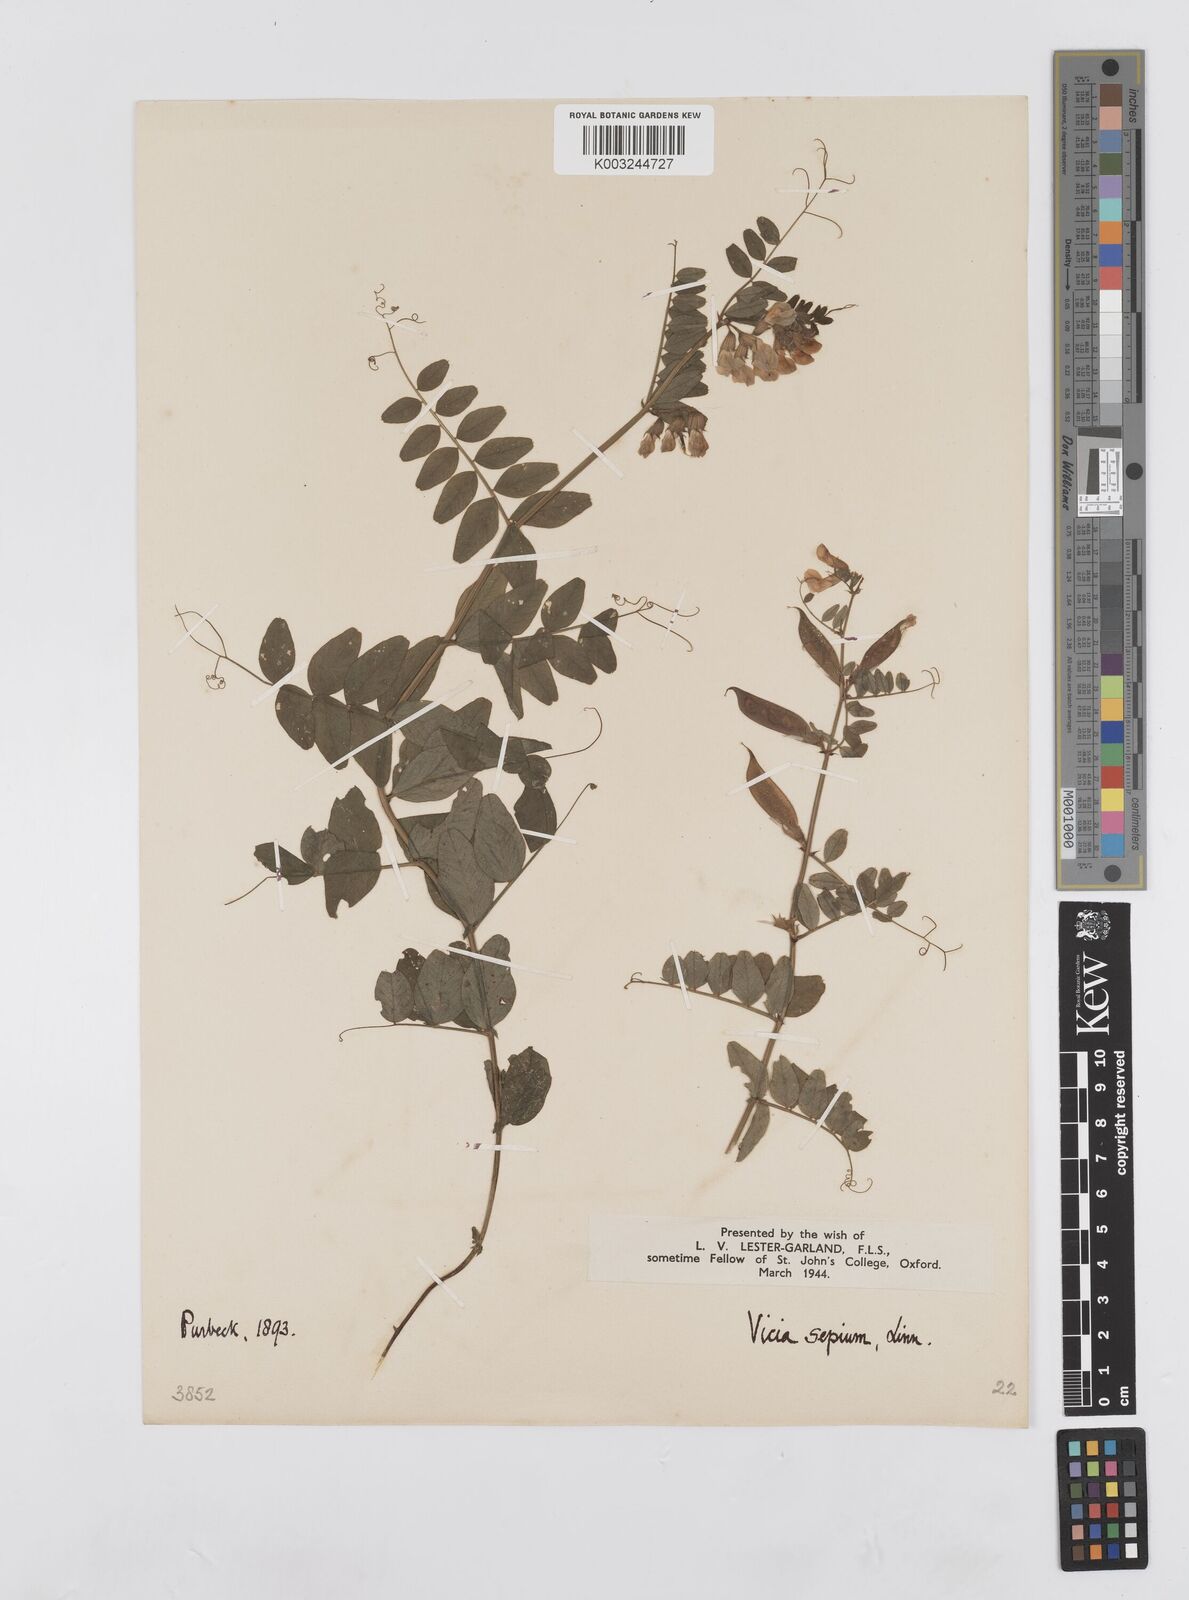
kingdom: Plantae
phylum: Tracheophyta
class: Magnoliopsida
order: Fabales
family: Fabaceae
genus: Vicia
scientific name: Vicia sepium
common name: Bush vetch
